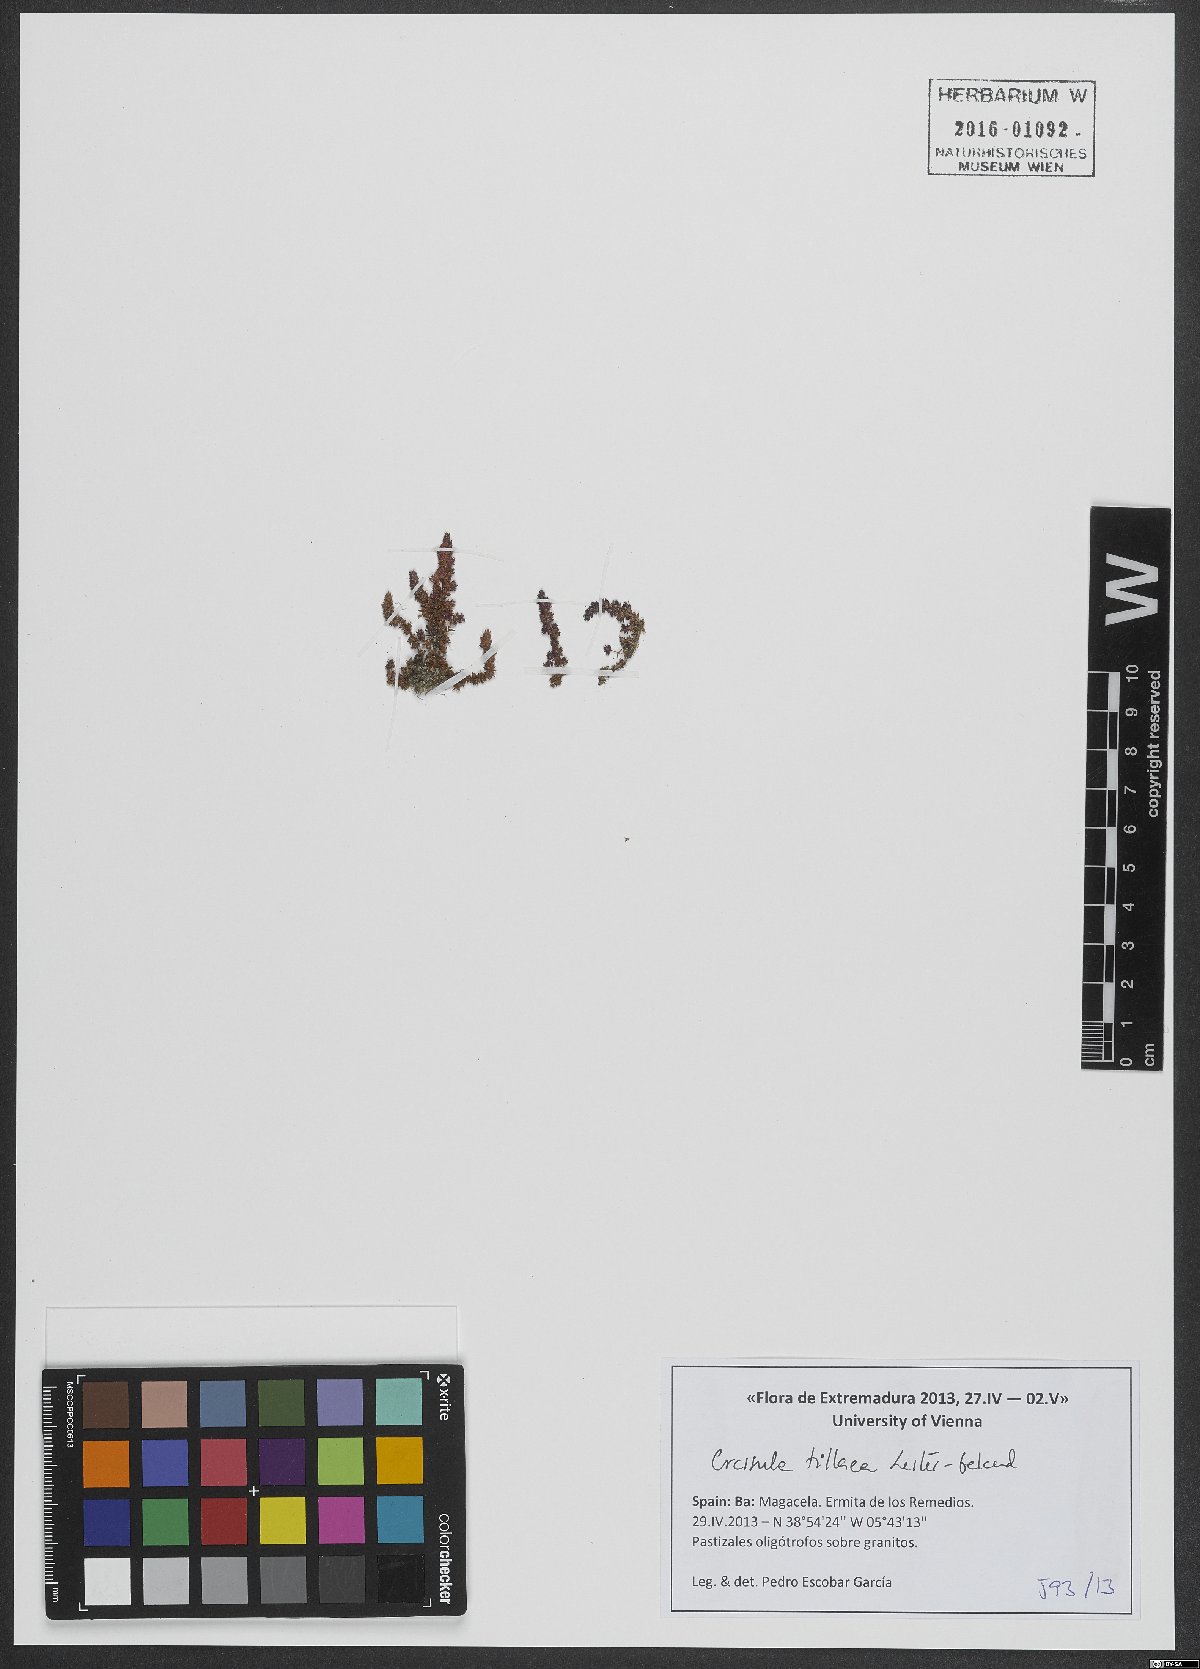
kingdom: Plantae
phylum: Tracheophyta
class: Magnoliopsida
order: Saxifragales
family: Crassulaceae
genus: Crassula
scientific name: Crassula tillaea
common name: Mossy stonecrop
